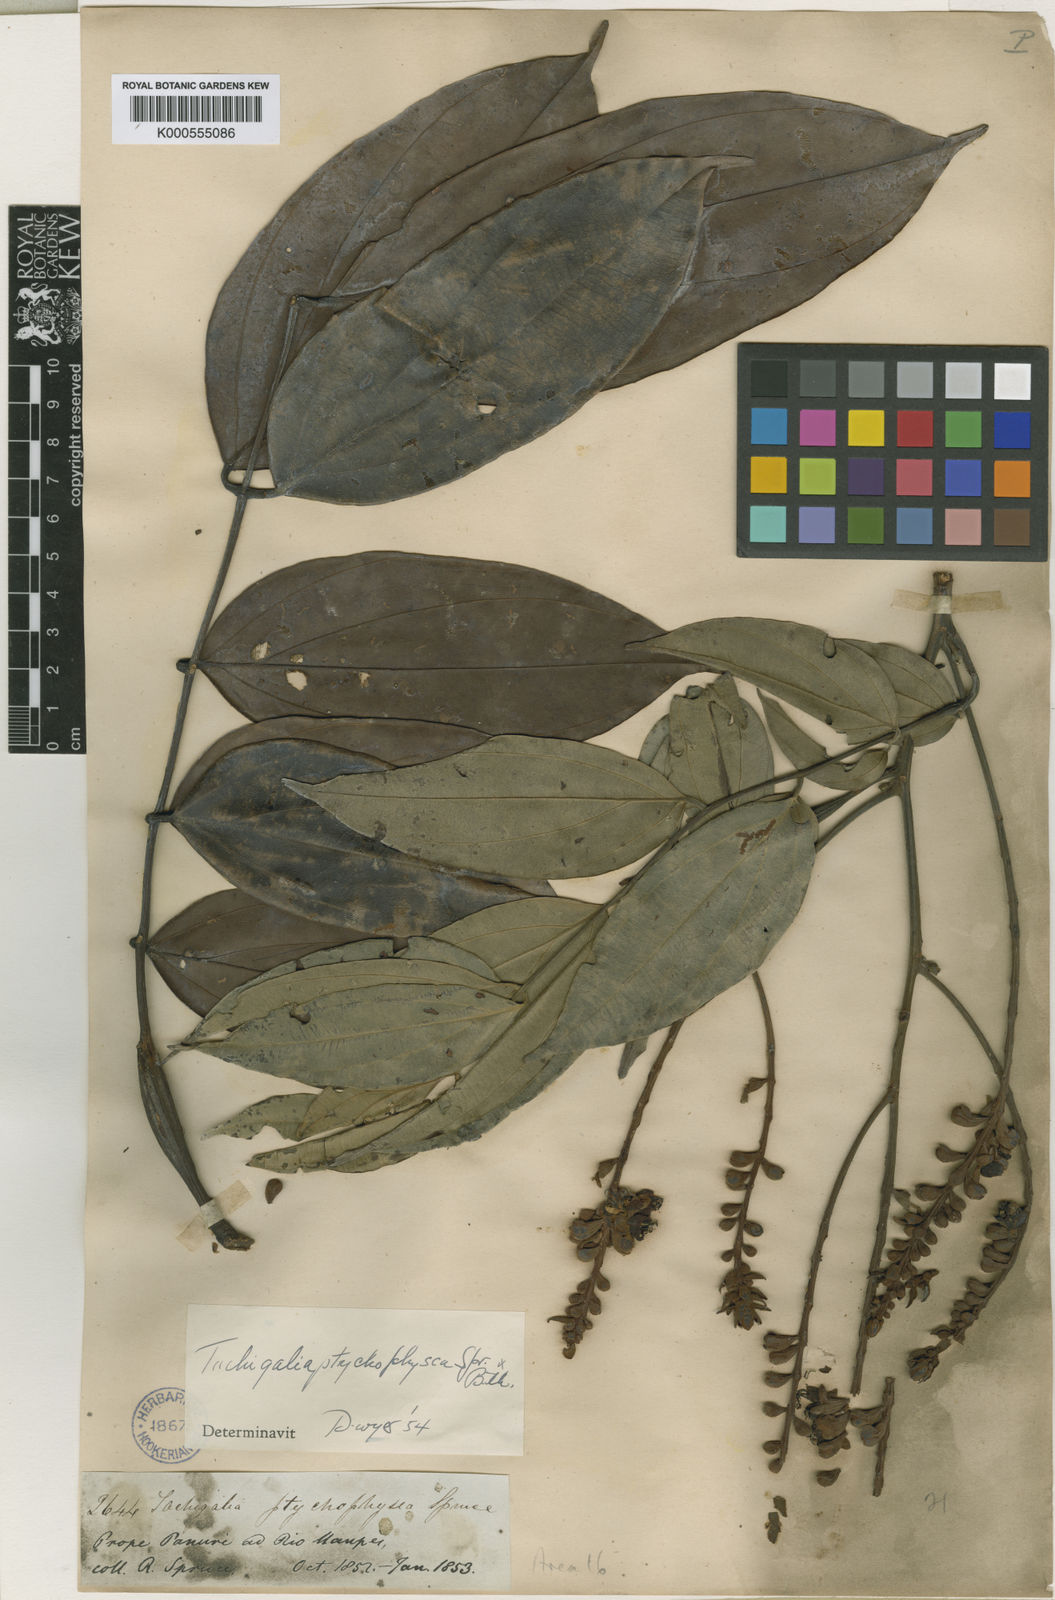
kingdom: Plantae
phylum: Tracheophyta
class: Magnoliopsida
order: Fabales
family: Fabaceae
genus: Tachigali
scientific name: Tachigali
